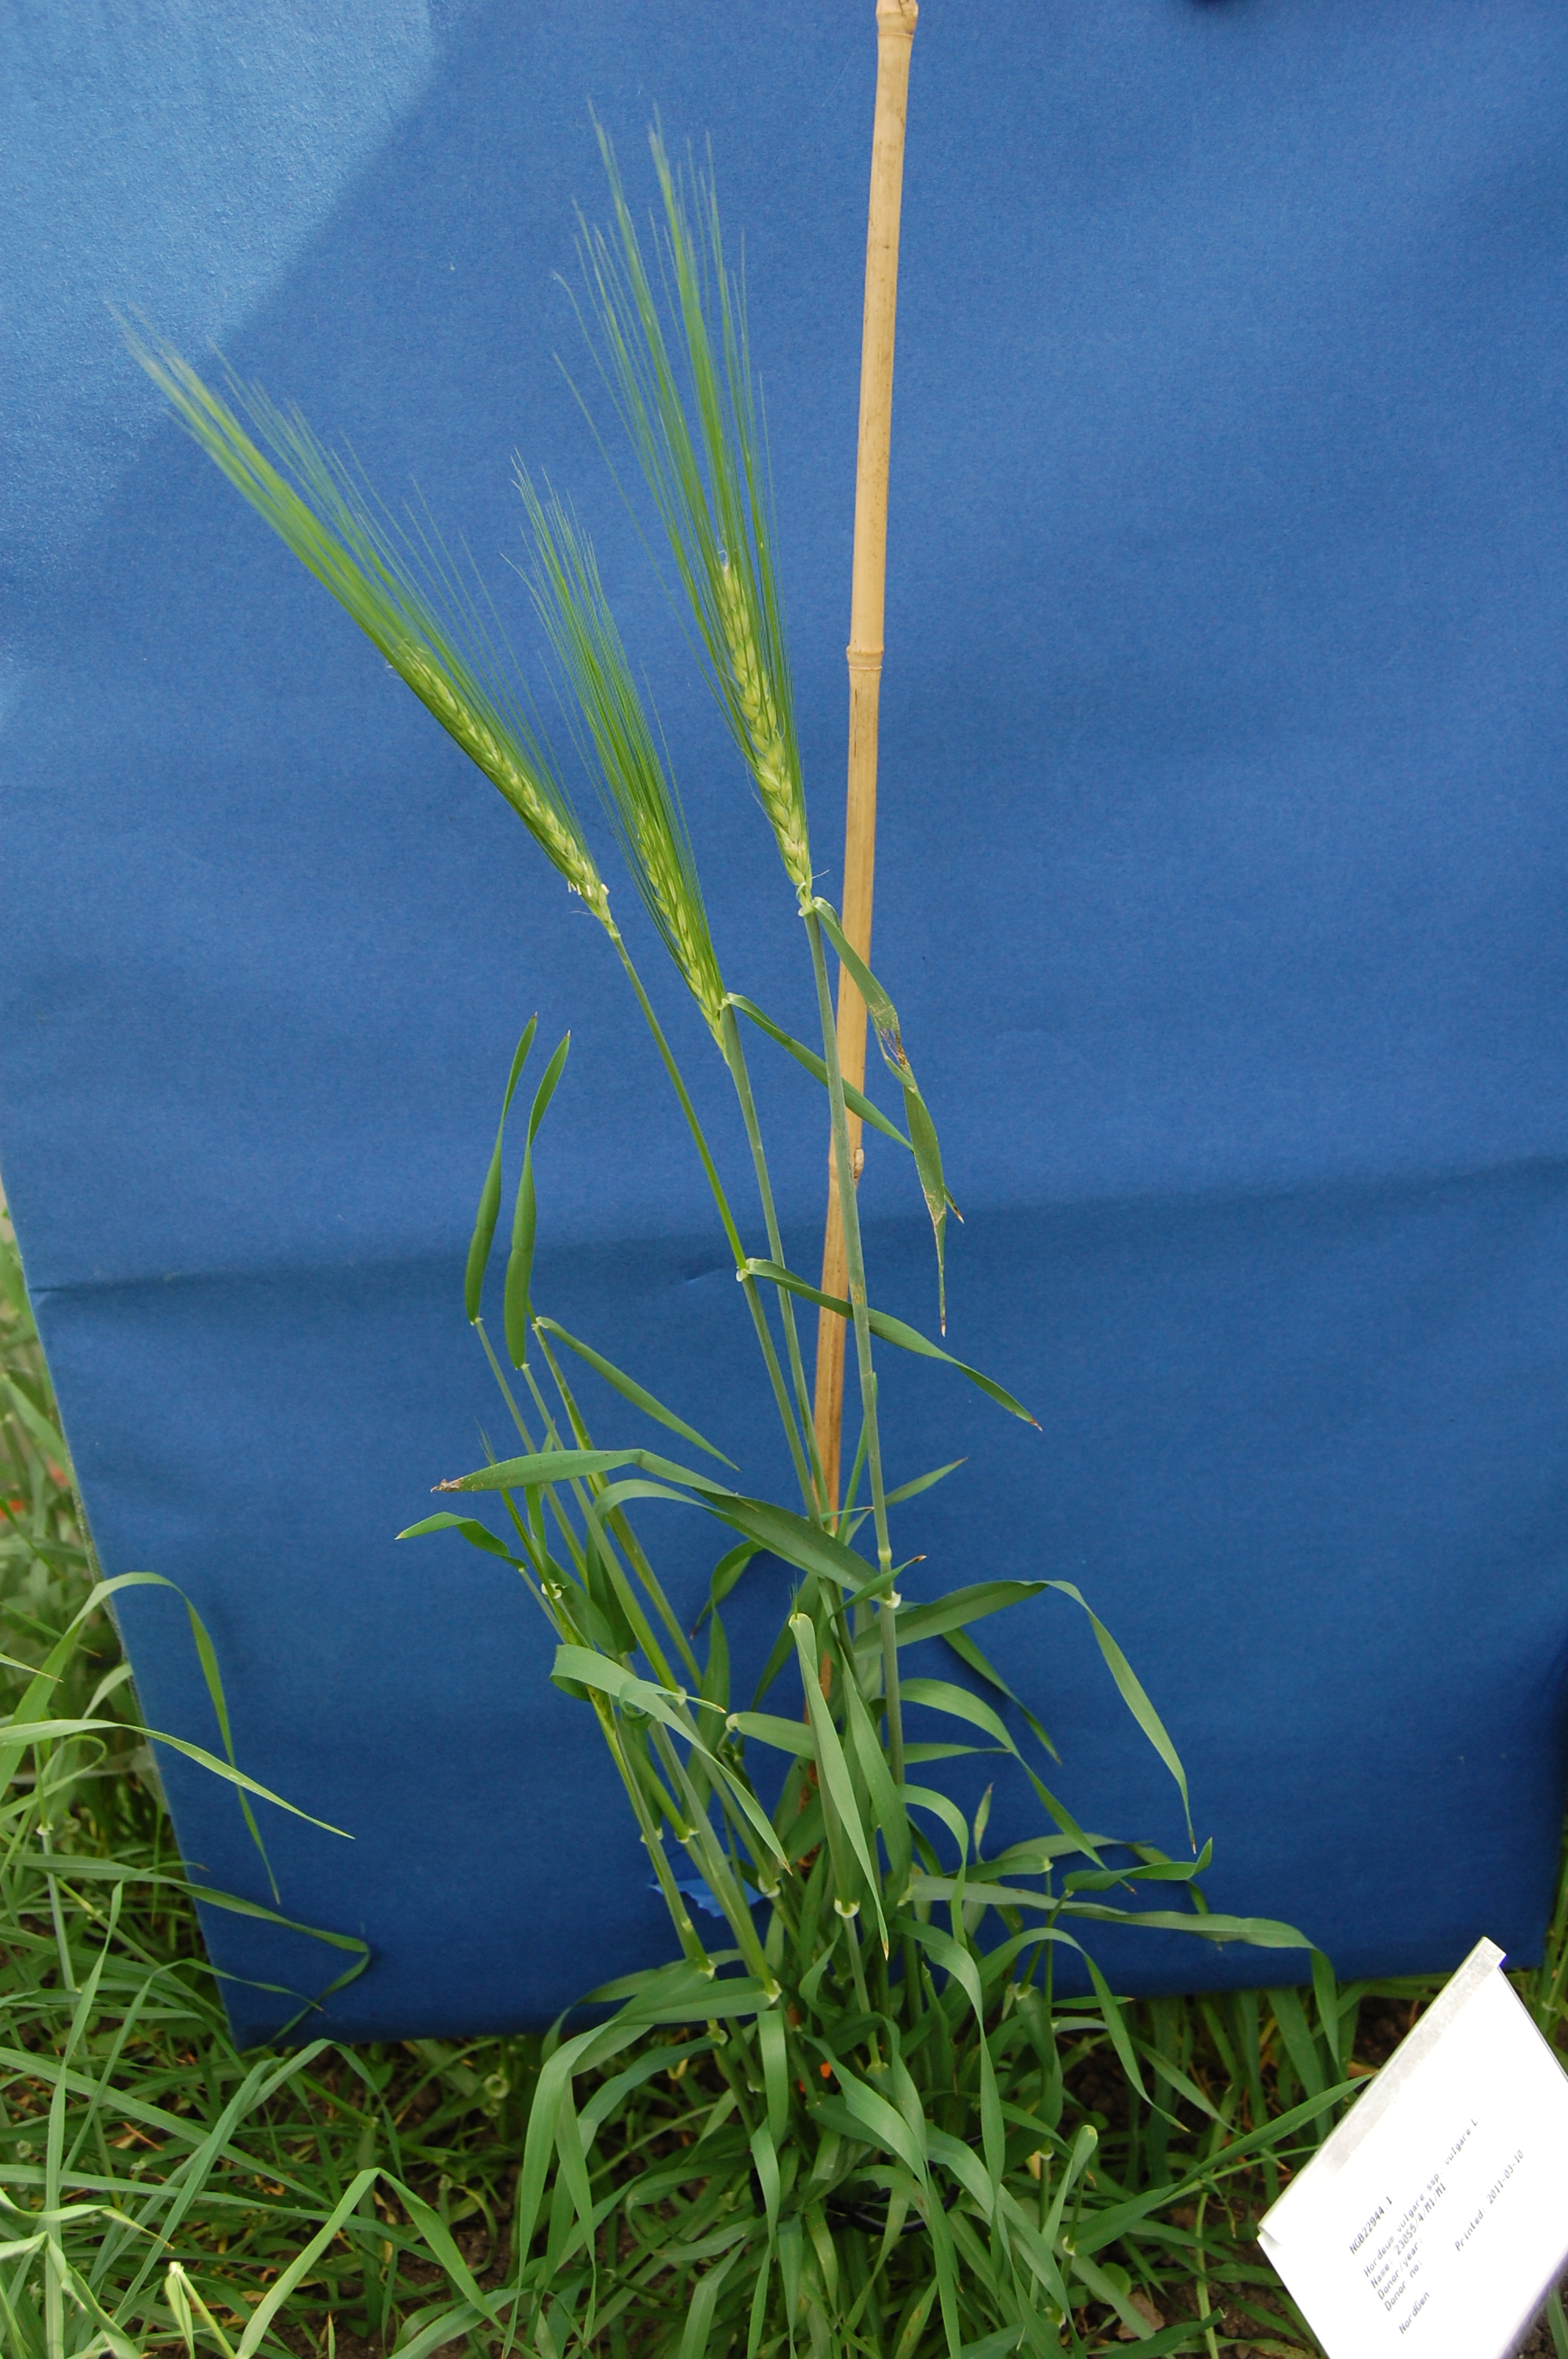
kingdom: Plantae
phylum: Tracheophyta
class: Liliopsida
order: Poales
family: Poaceae
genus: Hordeum
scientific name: Hordeum vulgare
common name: Common barley
